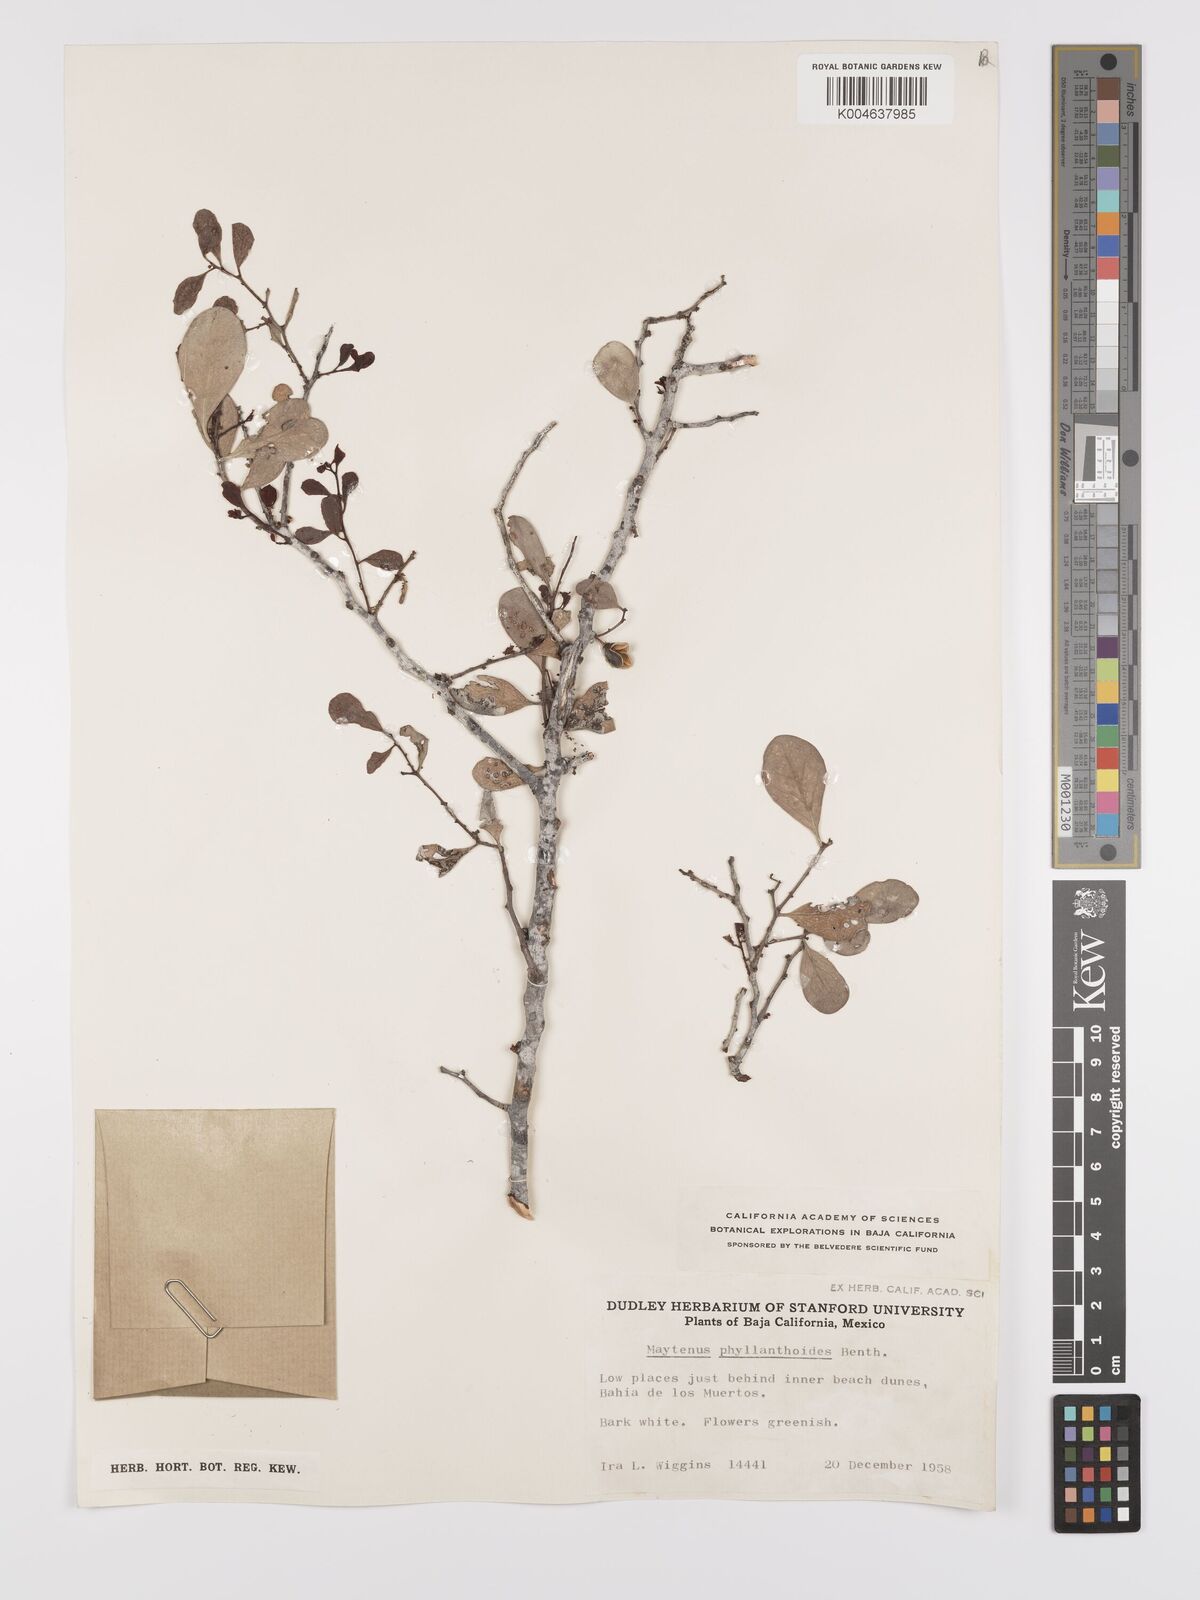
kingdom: Plantae
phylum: Tracheophyta
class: Magnoliopsida
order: Celastrales
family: Celastraceae
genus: Tricerma
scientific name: Tricerma phyllanthoides
